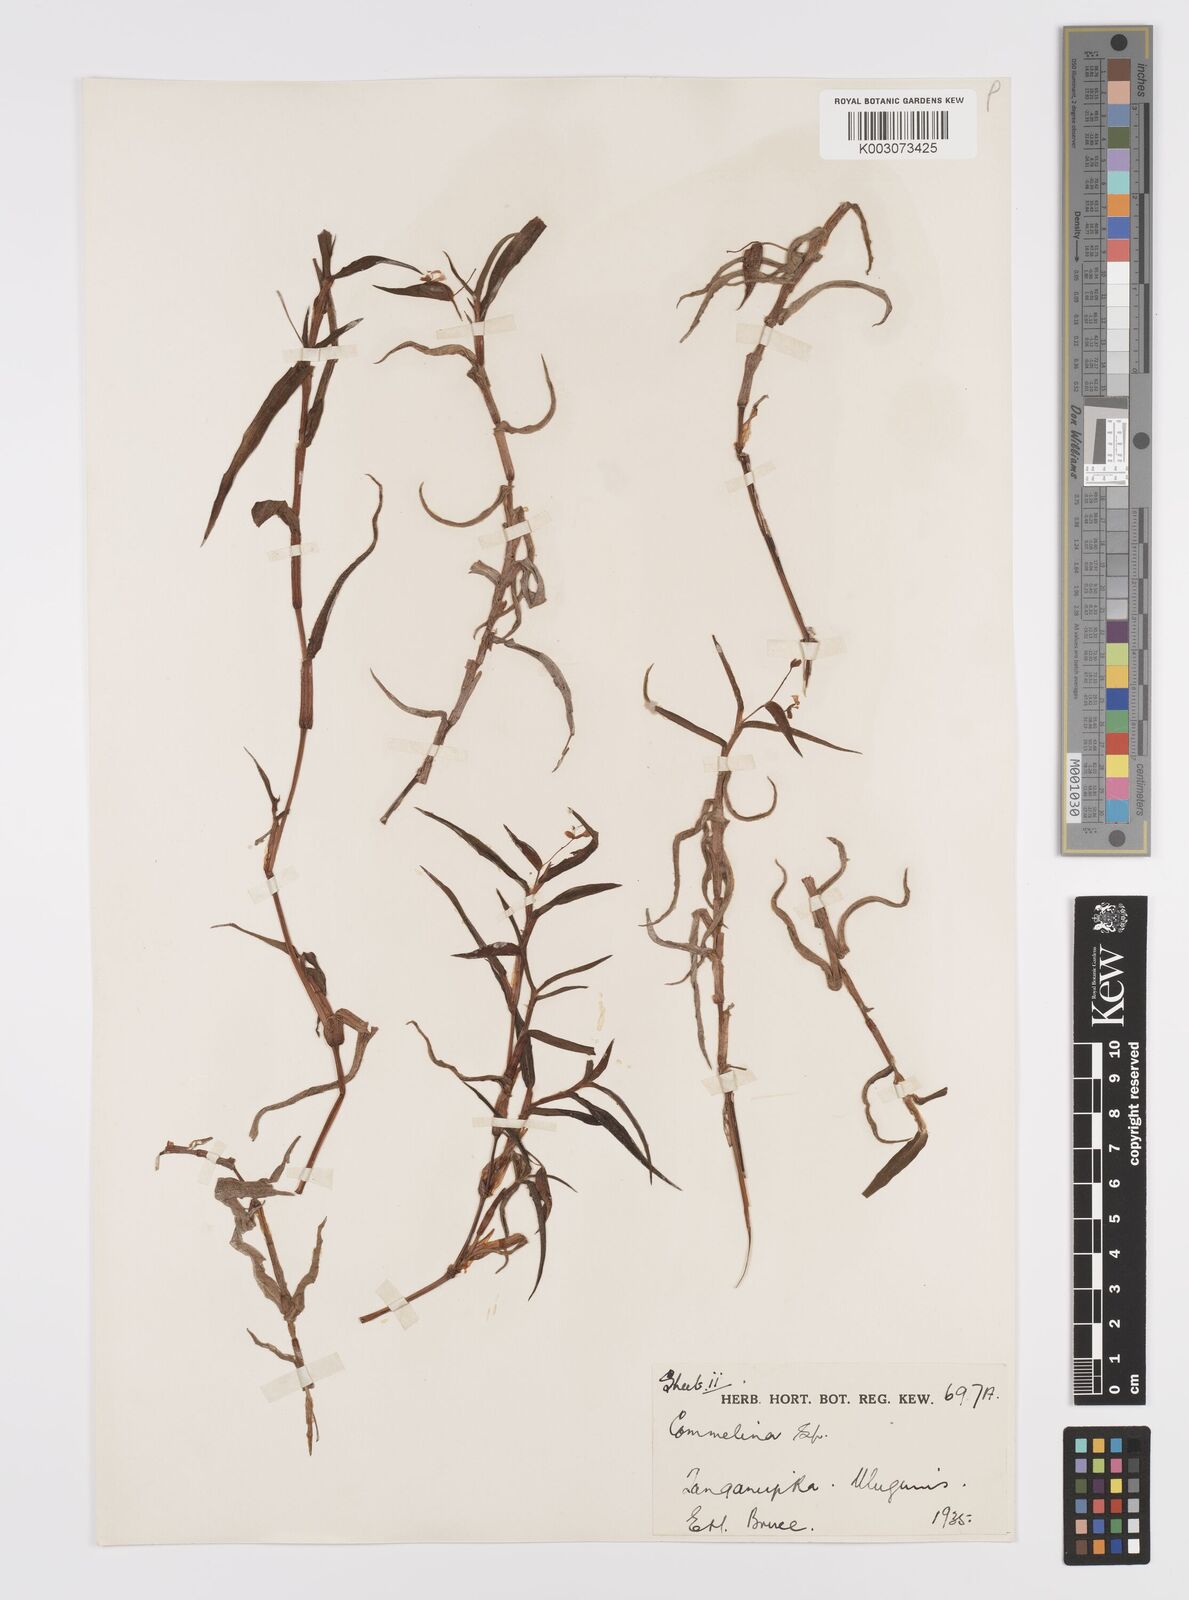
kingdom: Plantae
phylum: Tracheophyta
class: Liliopsida
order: Commelinales
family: Commelinaceae
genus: Commelina
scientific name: Commelina africana
